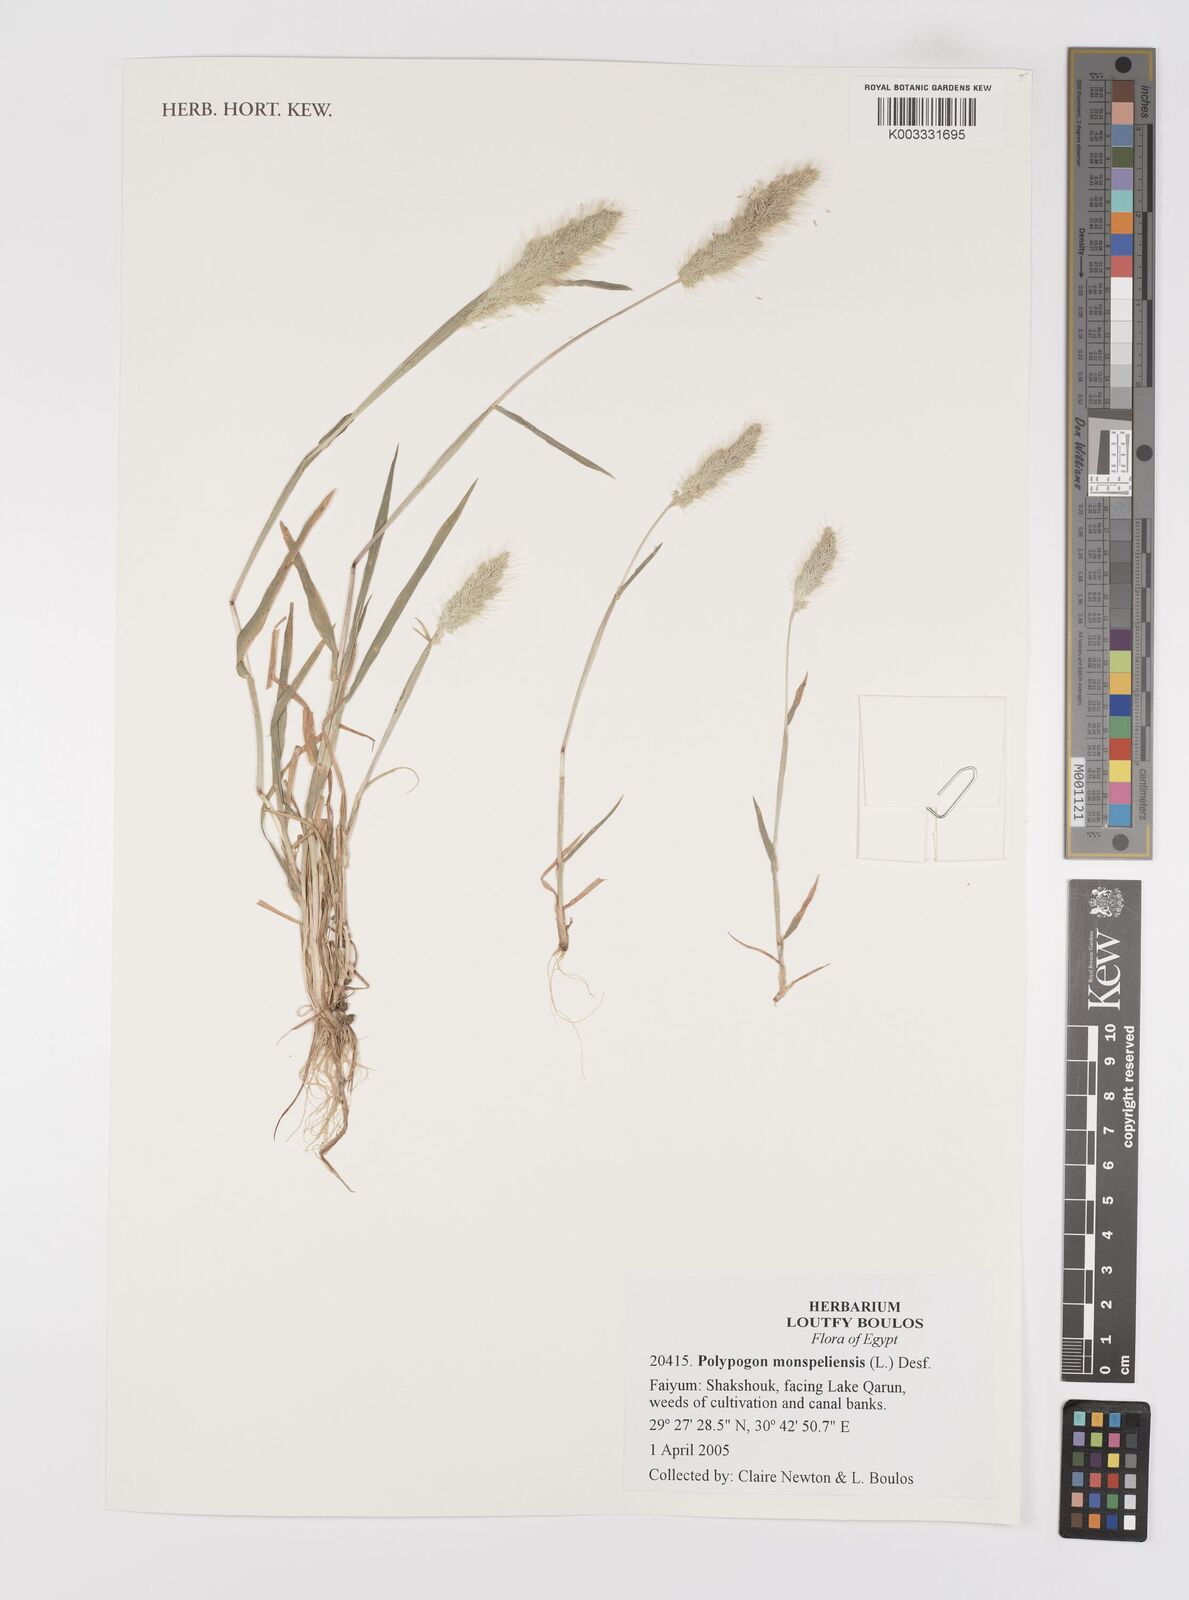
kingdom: Plantae
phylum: Tracheophyta
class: Liliopsida
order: Poales
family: Poaceae
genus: Polypogon
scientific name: Polypogon monspeliensis
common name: Annual rabbitsfoot grass
